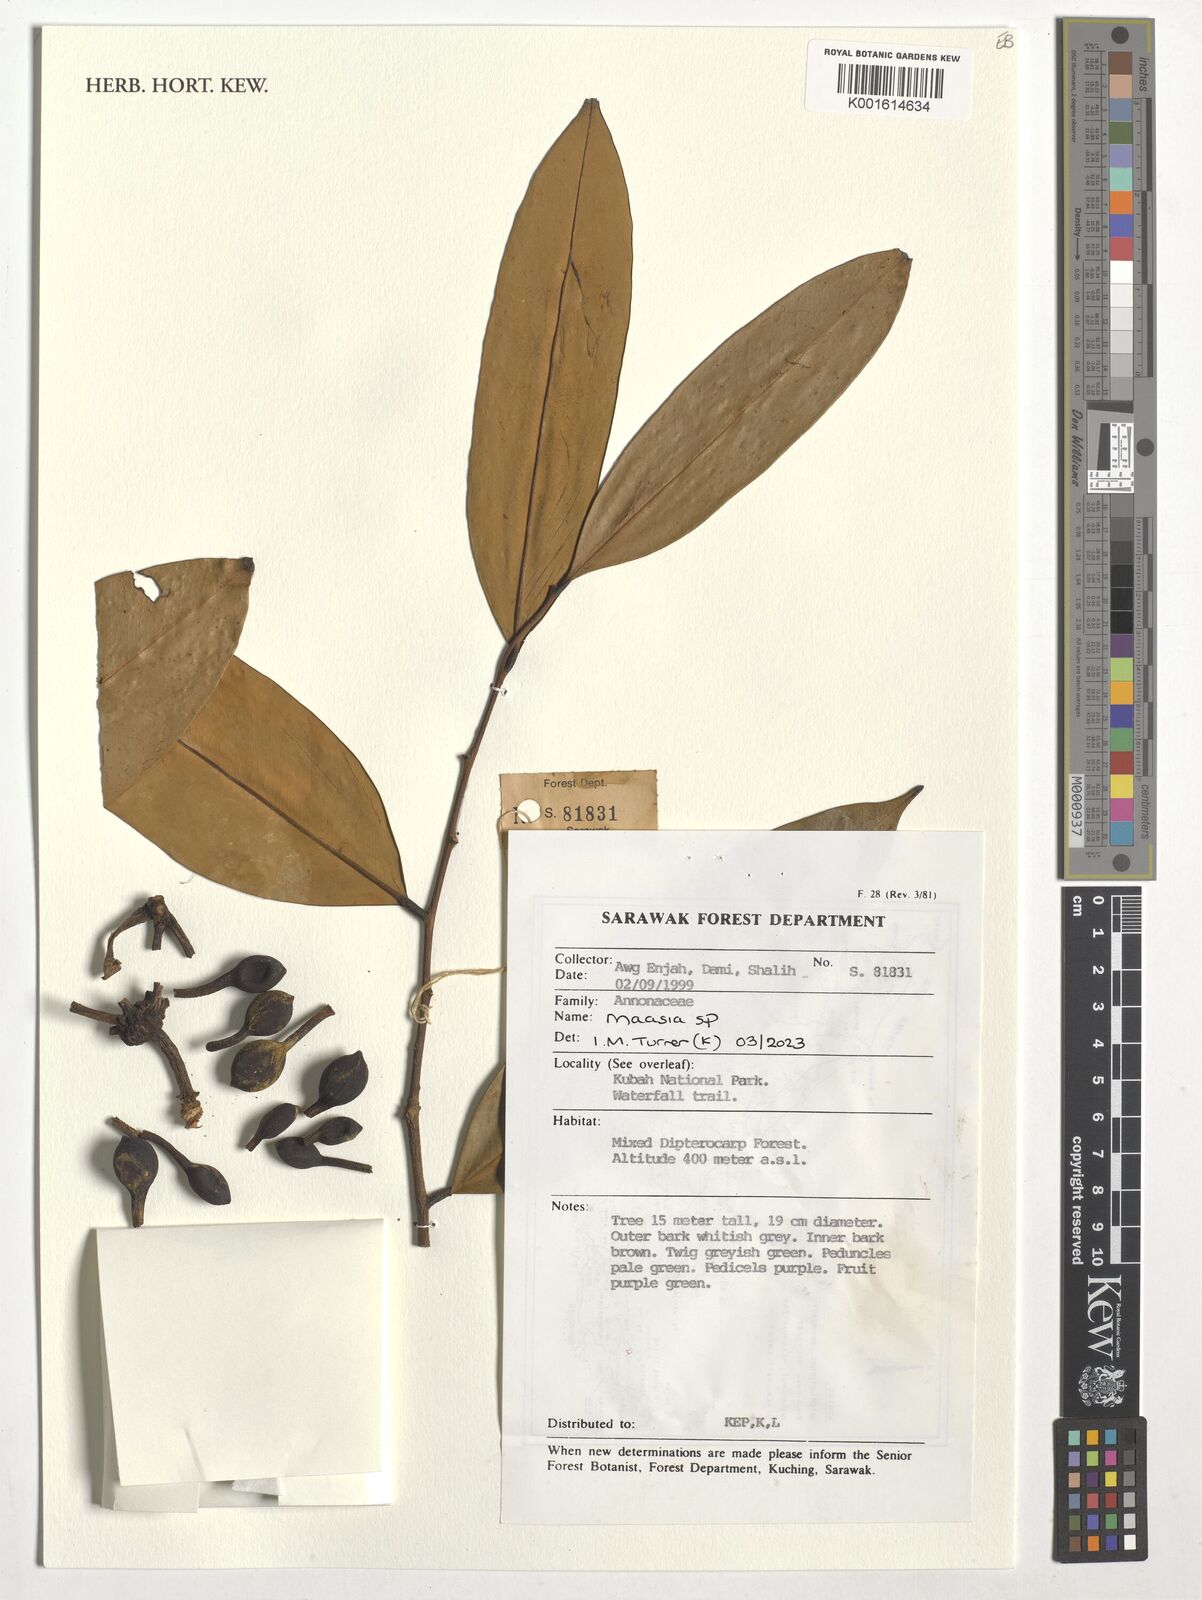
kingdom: Plantae
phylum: Tracheophyta
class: Magnoliopsida
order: Magnoliales
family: Annonaceae
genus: Maasia
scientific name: Maasia
